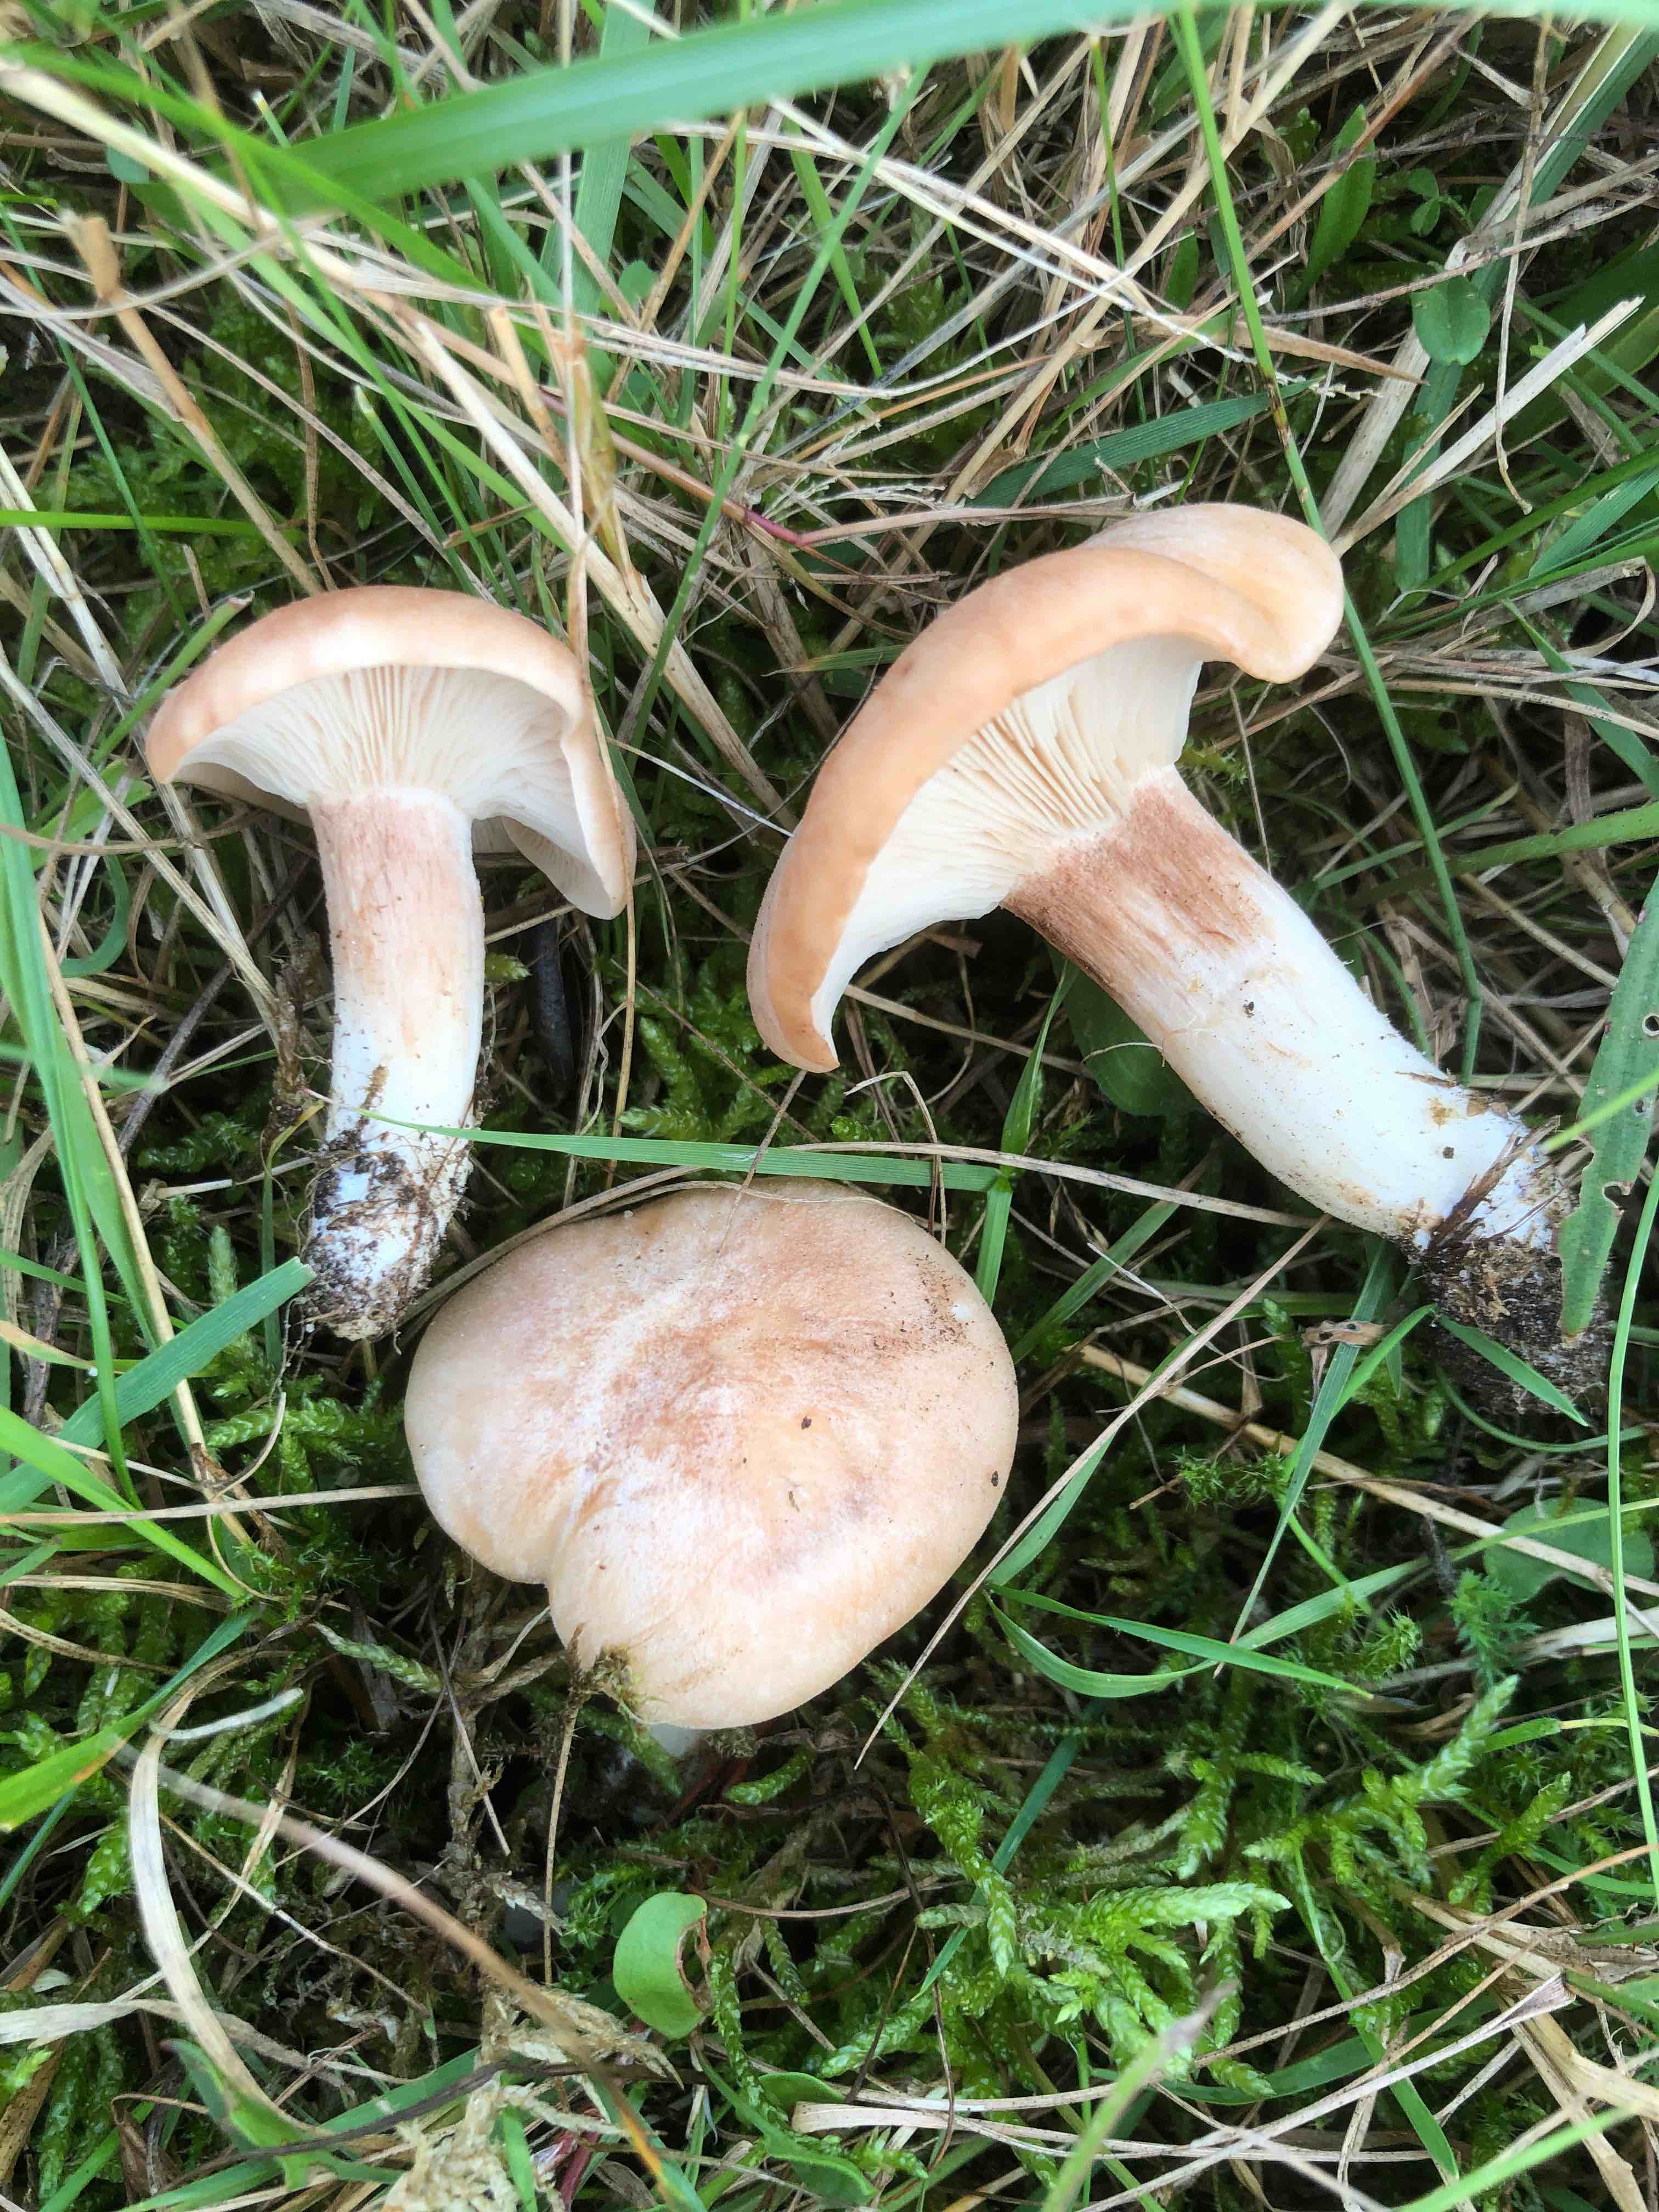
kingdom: Fungi
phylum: Basidiomycota
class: Agaricomycetes
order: Agaricales
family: Entolomataceae
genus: Clitopilus
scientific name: Clitopilus geminus
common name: kødfarvet troldhat
